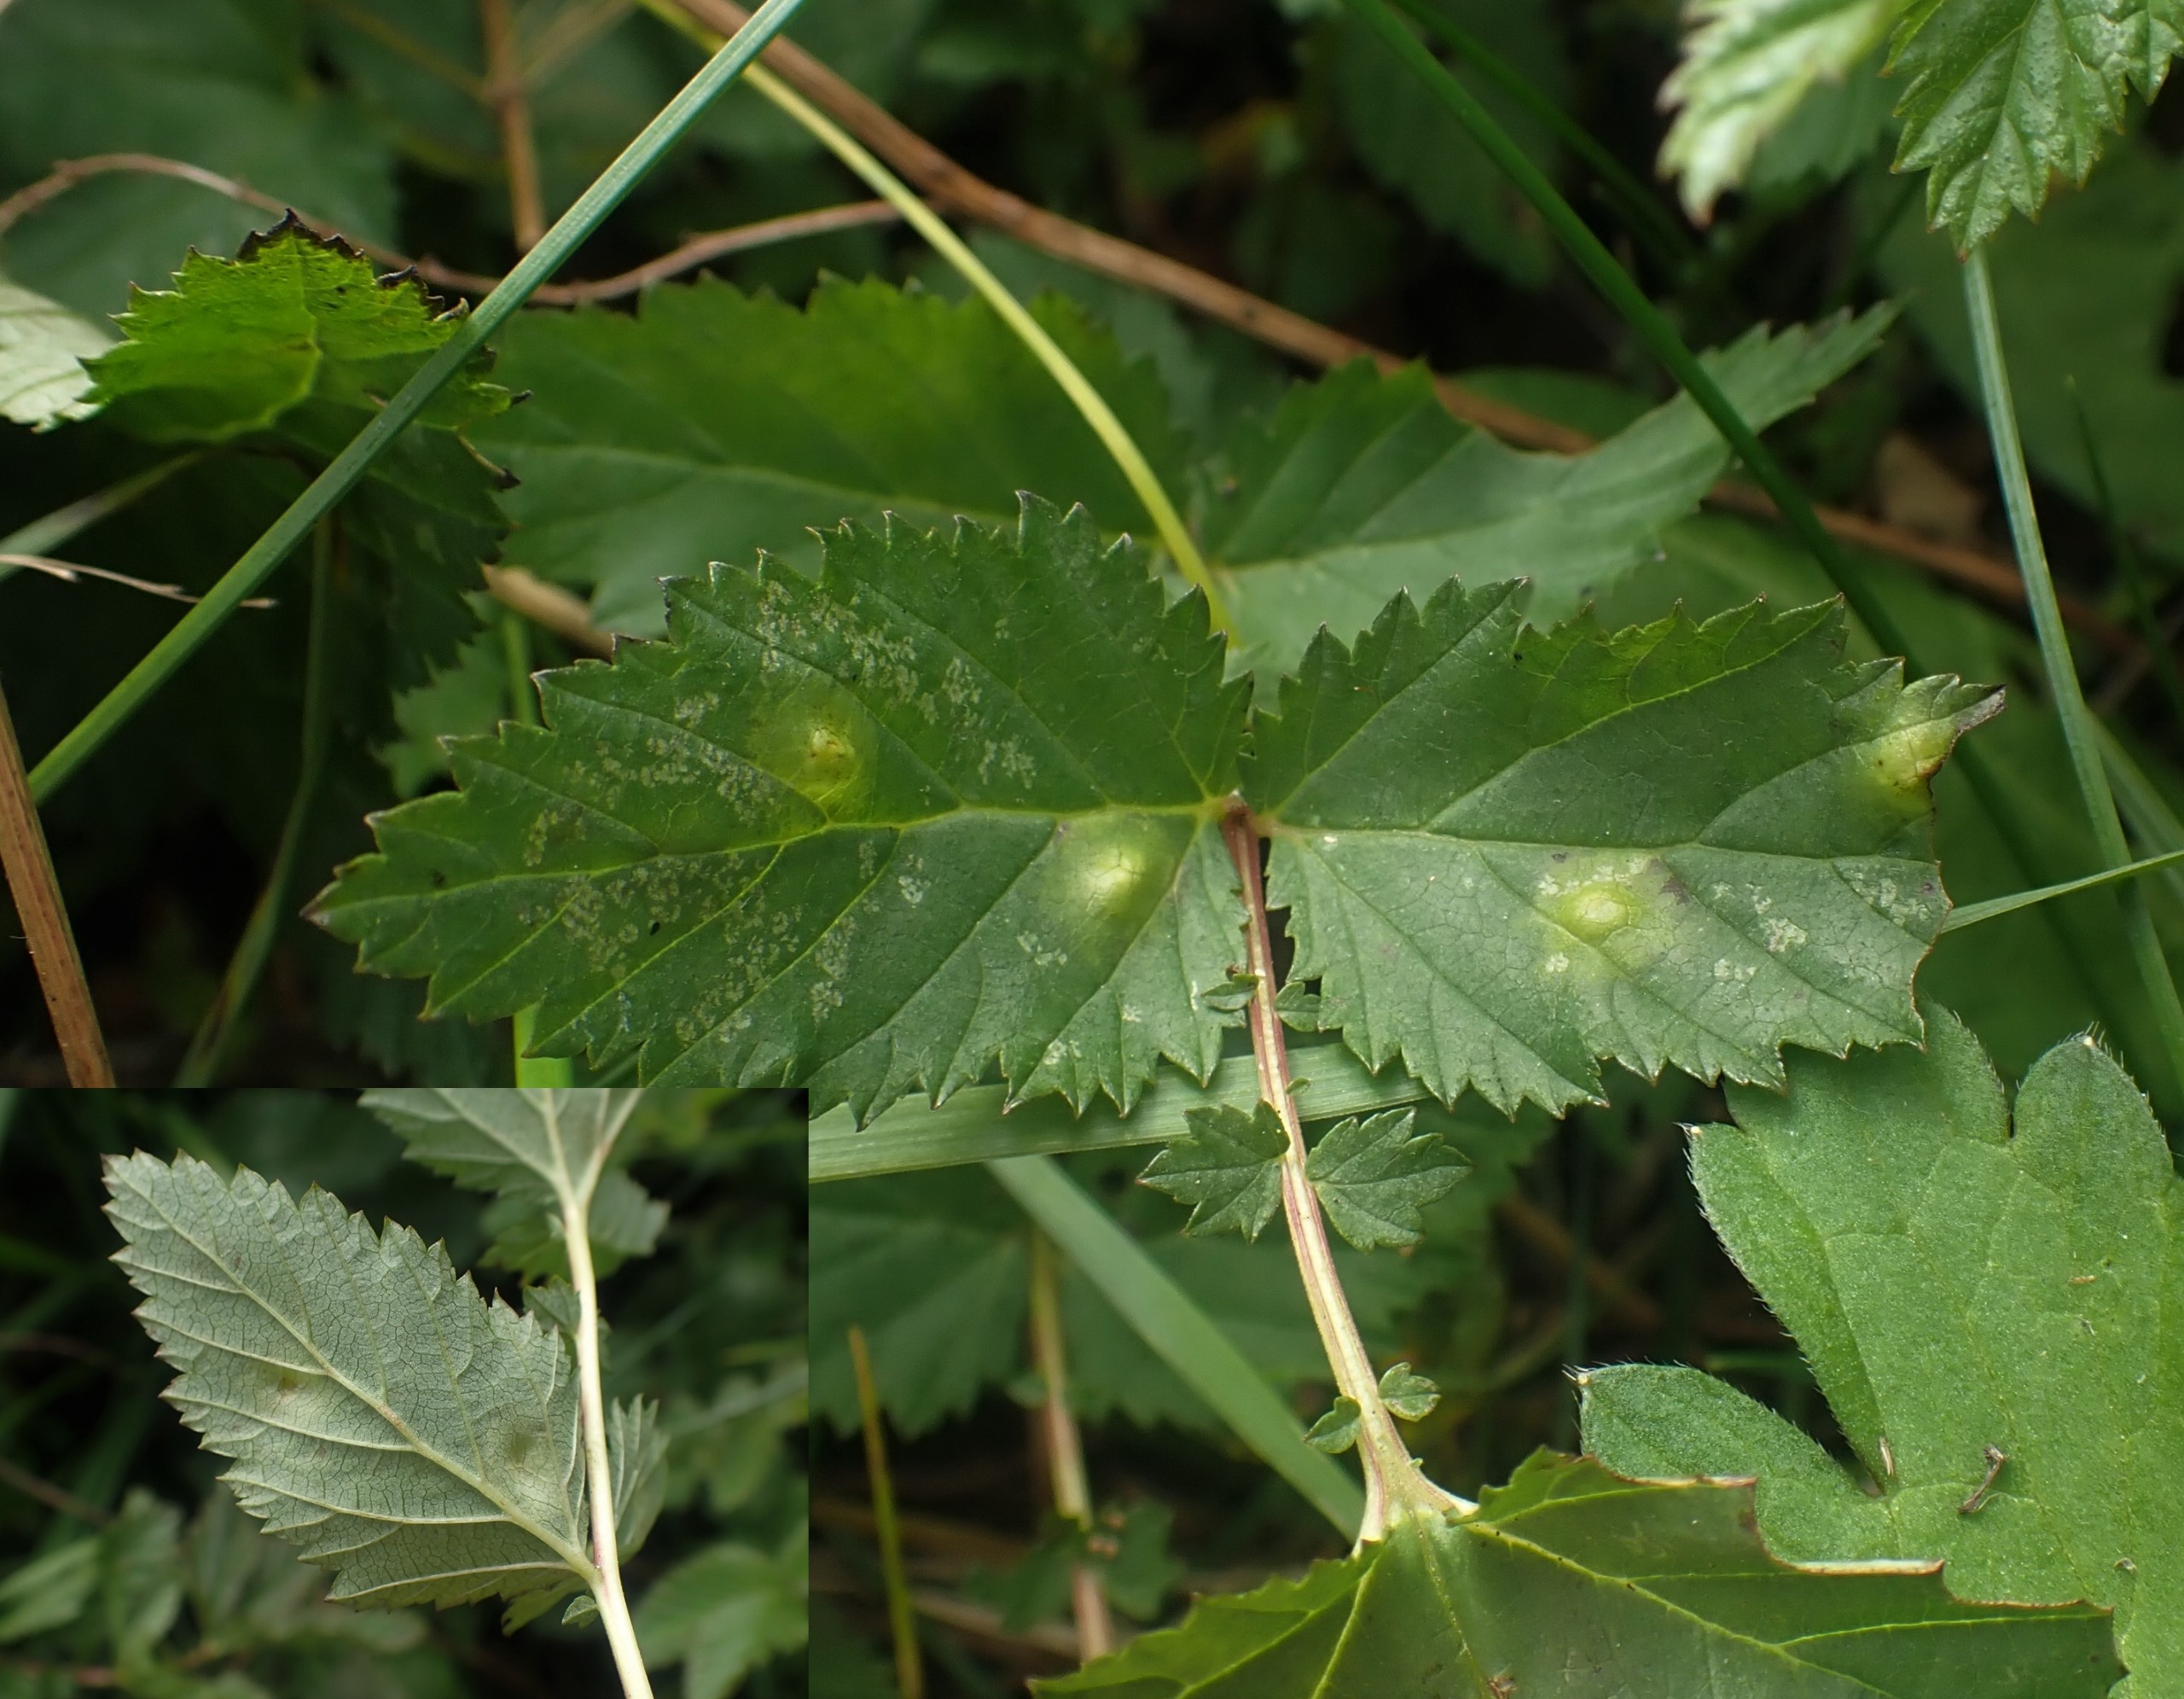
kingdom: Animalia
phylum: Arthropoda
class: Insecta
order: Diptera
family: Cecidomyiidae
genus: Dasineura
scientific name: Dasineura pustulans
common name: Mjødurtblistgalmyg
